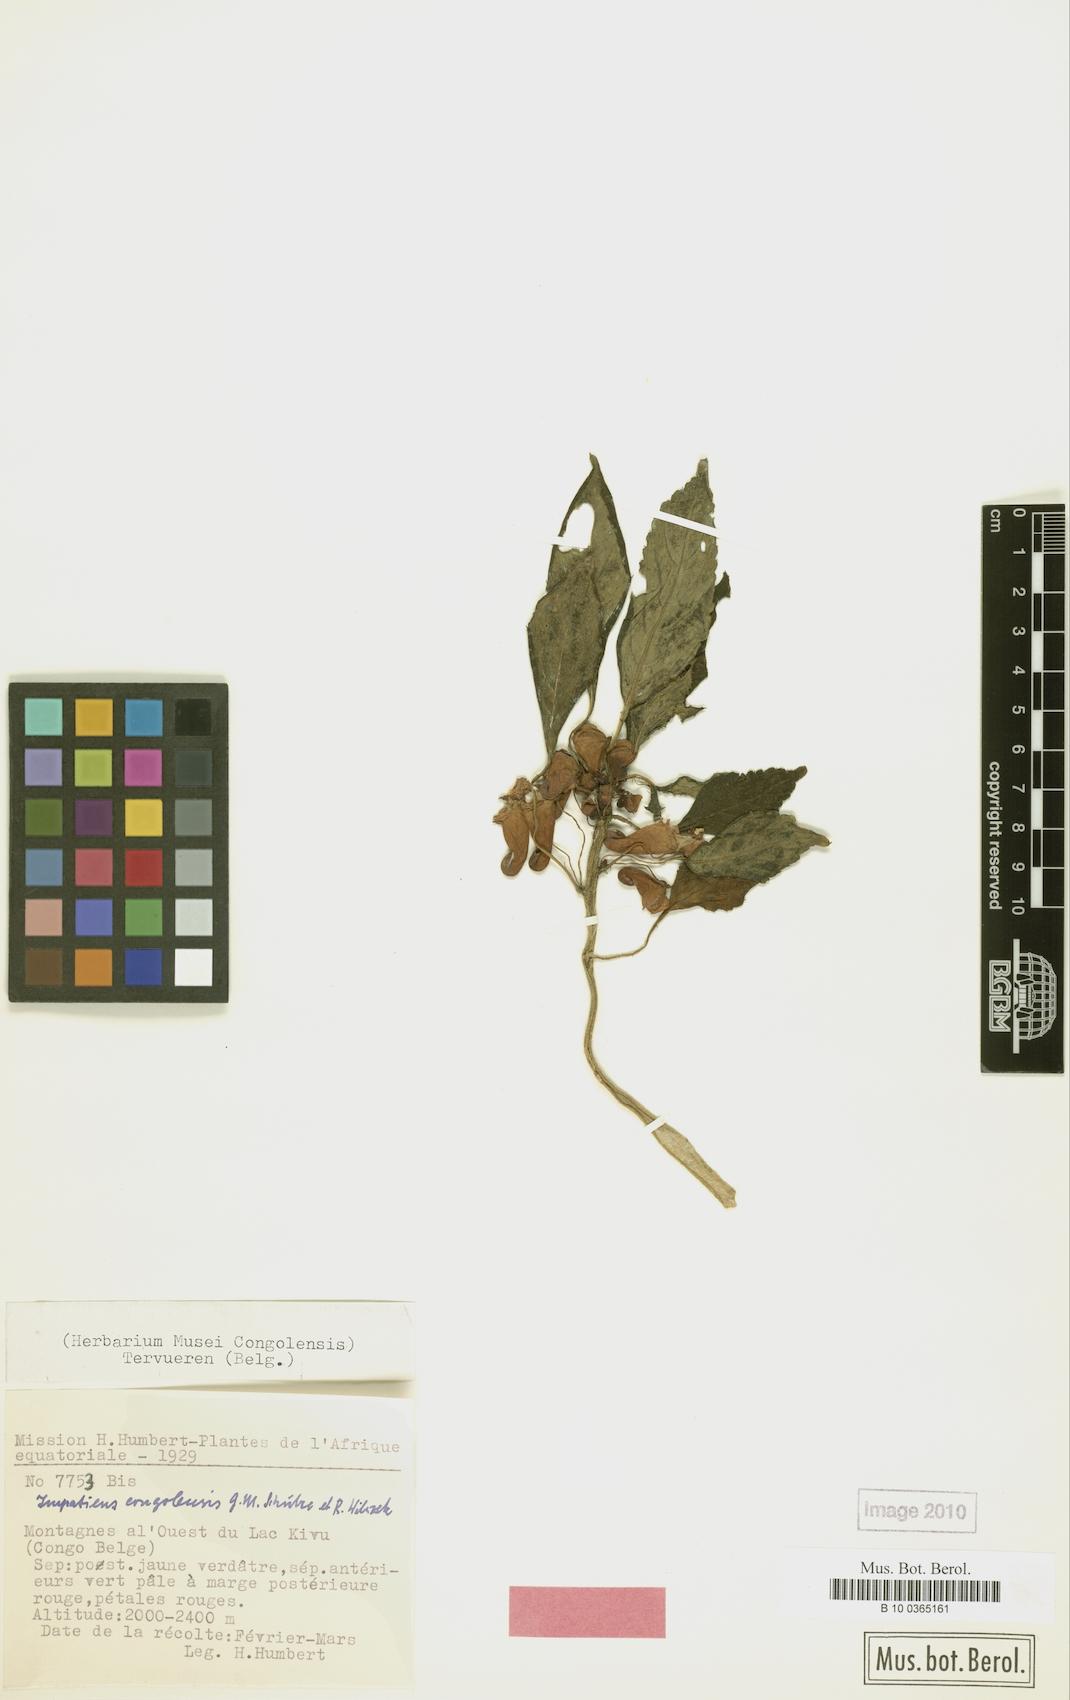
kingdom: Plantae
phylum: Tracheophyta
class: Magnoliopsida
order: Ericales
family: Balsaminaceae
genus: Impatiens
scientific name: Impatiens congolensis
